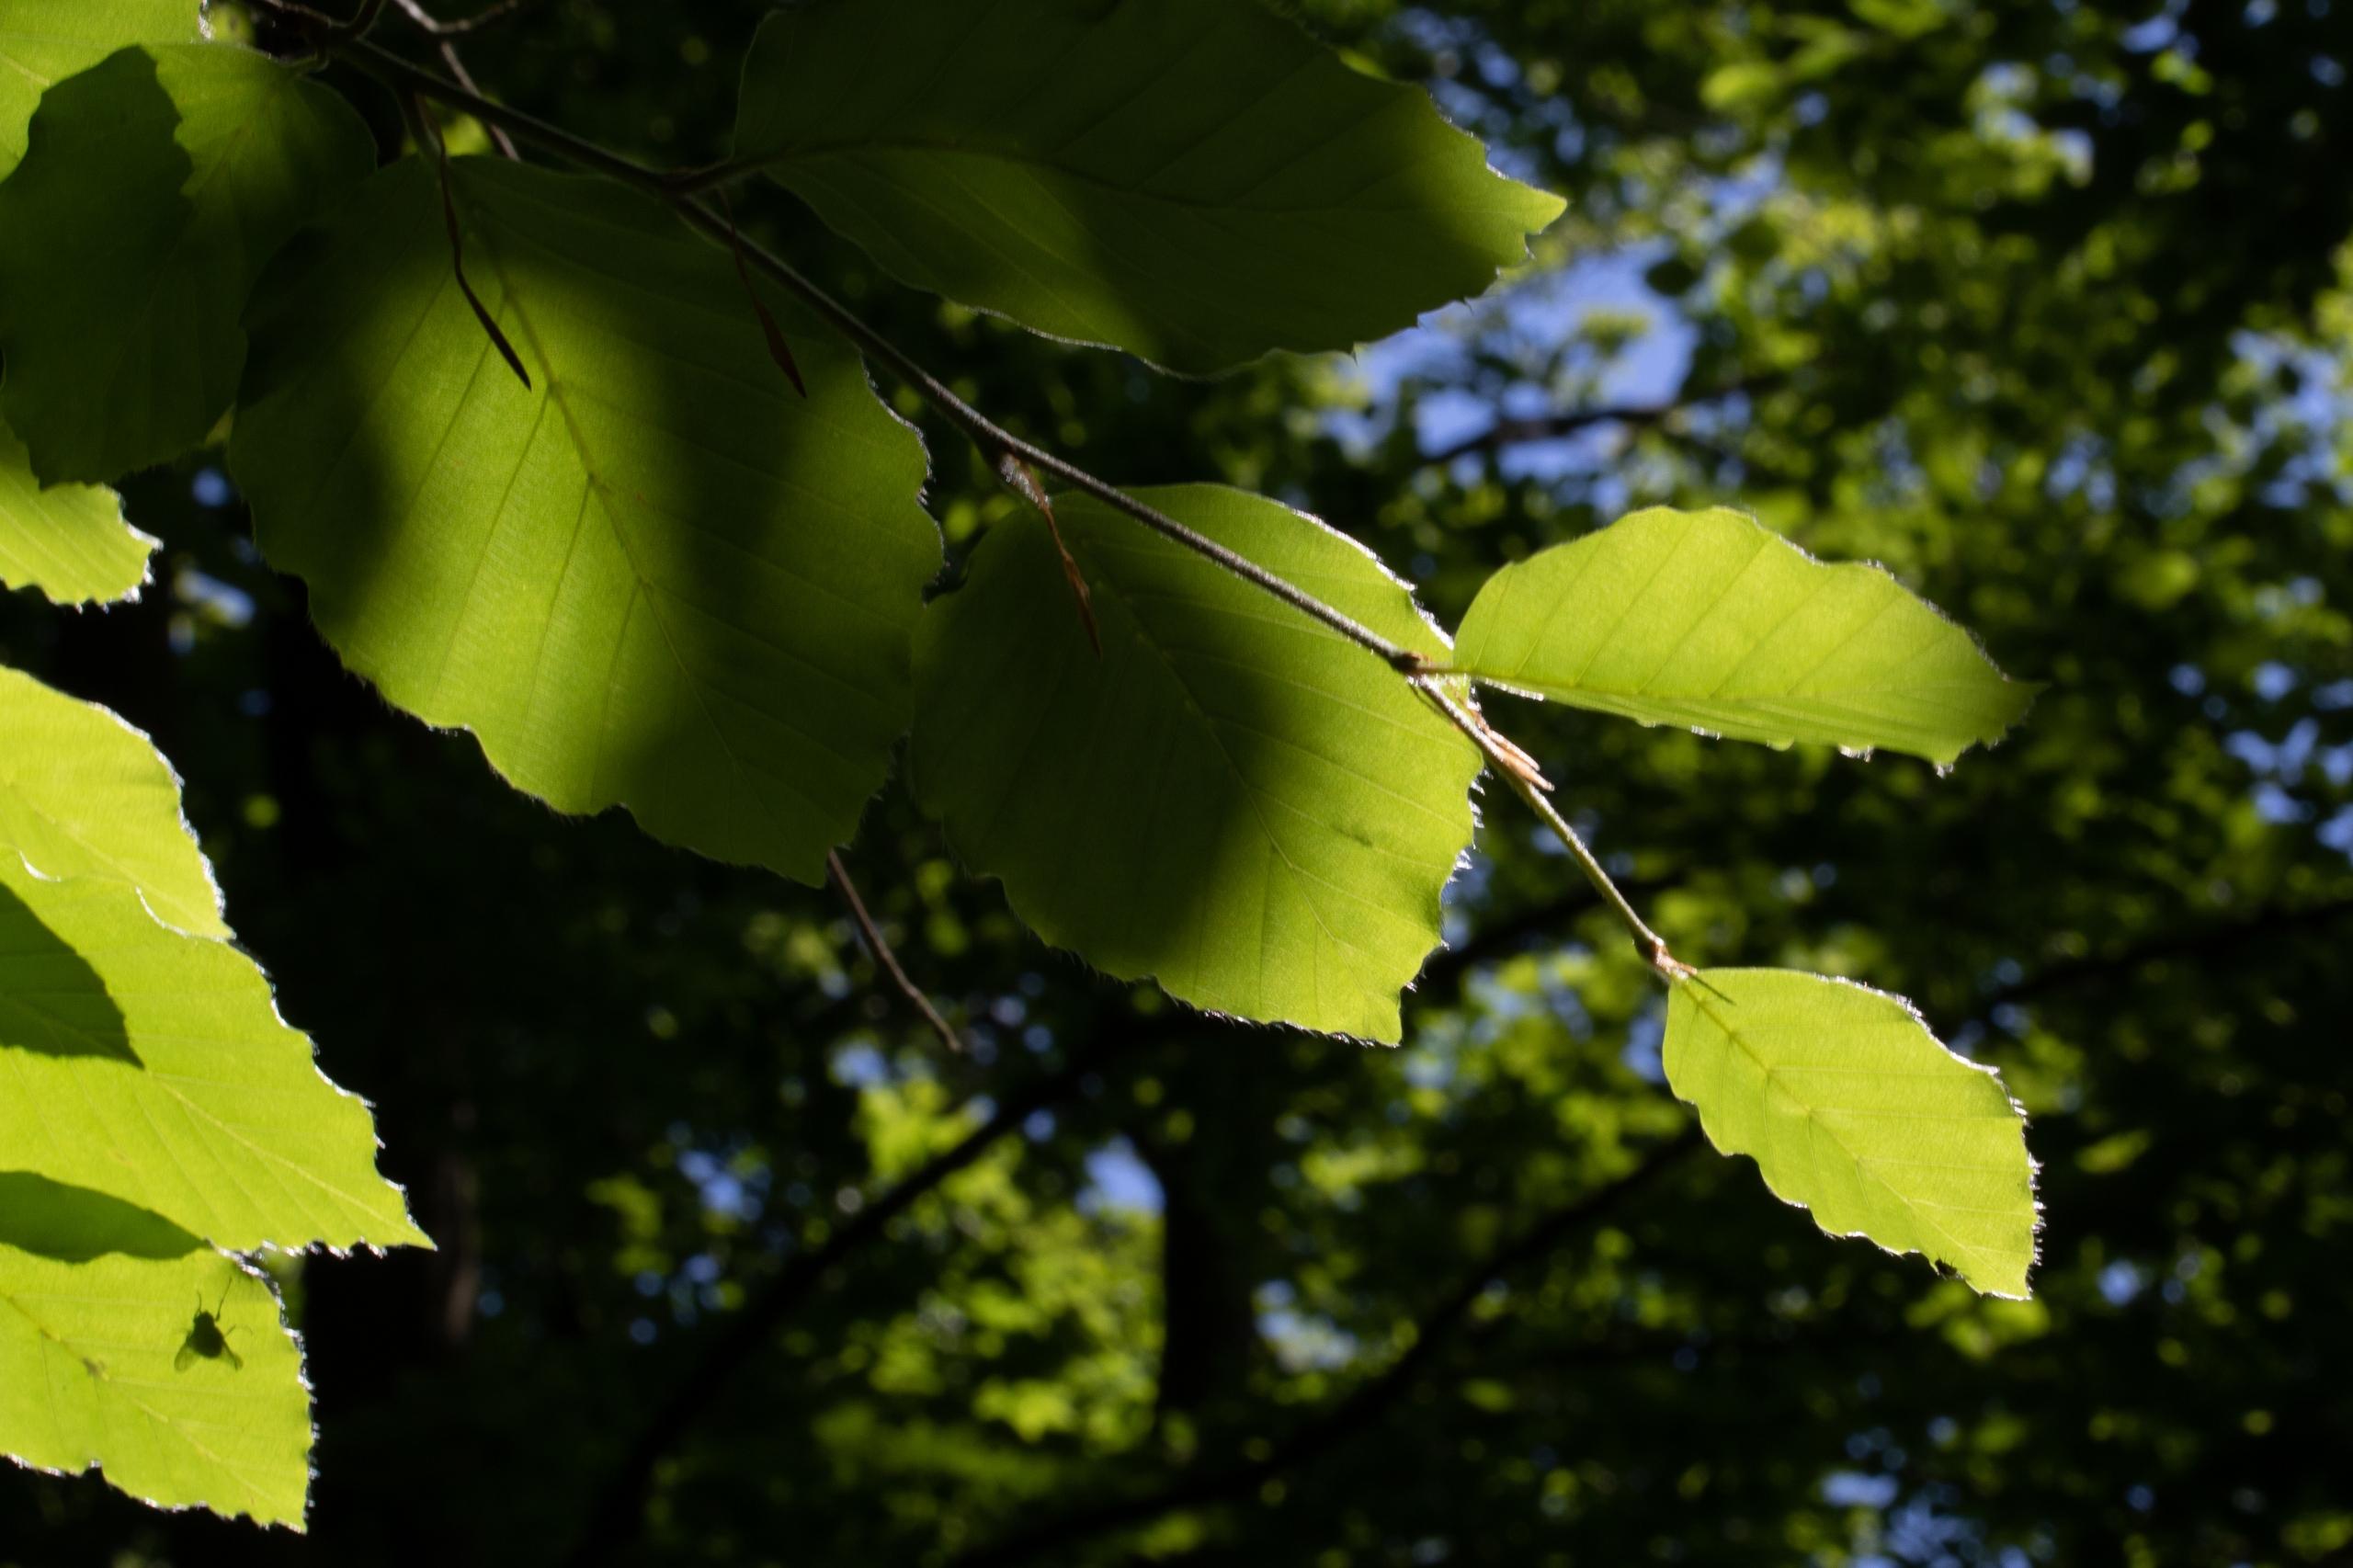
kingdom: Plantae
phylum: Tracheophyta
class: Magnoliopsida
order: Fagales
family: Fagaceae
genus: Fagus
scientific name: Fagus sylvatica
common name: Bøg
